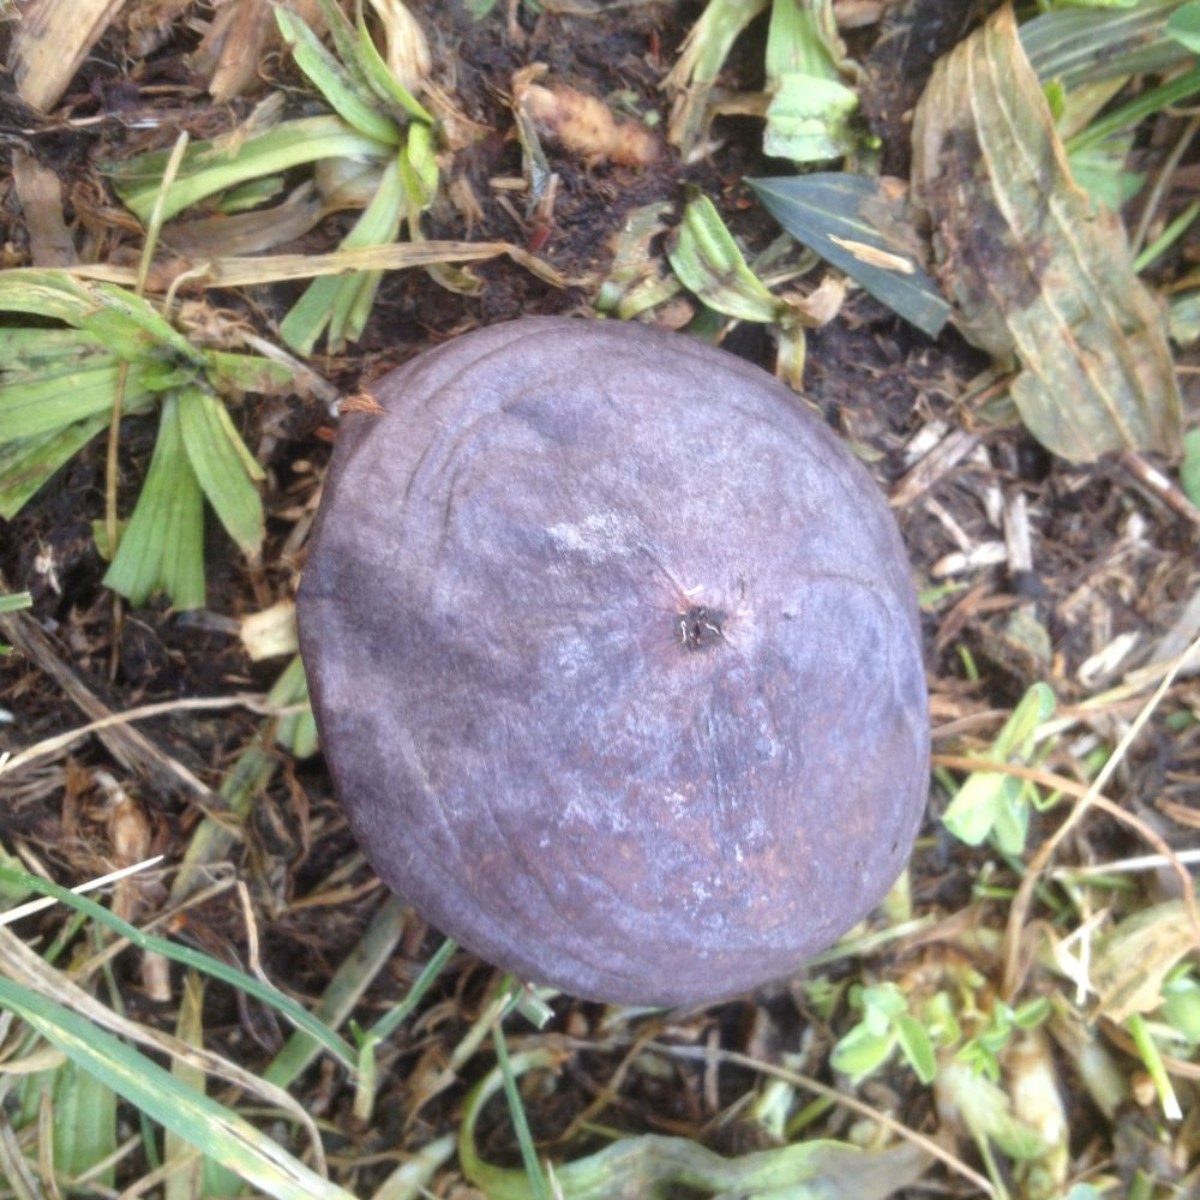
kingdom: Fungi
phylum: Basidiomycota
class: Agaricomycetes
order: Agaricales
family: Lycoperdaceae
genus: Bovista
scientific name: Bovista plumbea
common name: blygrå bovist
